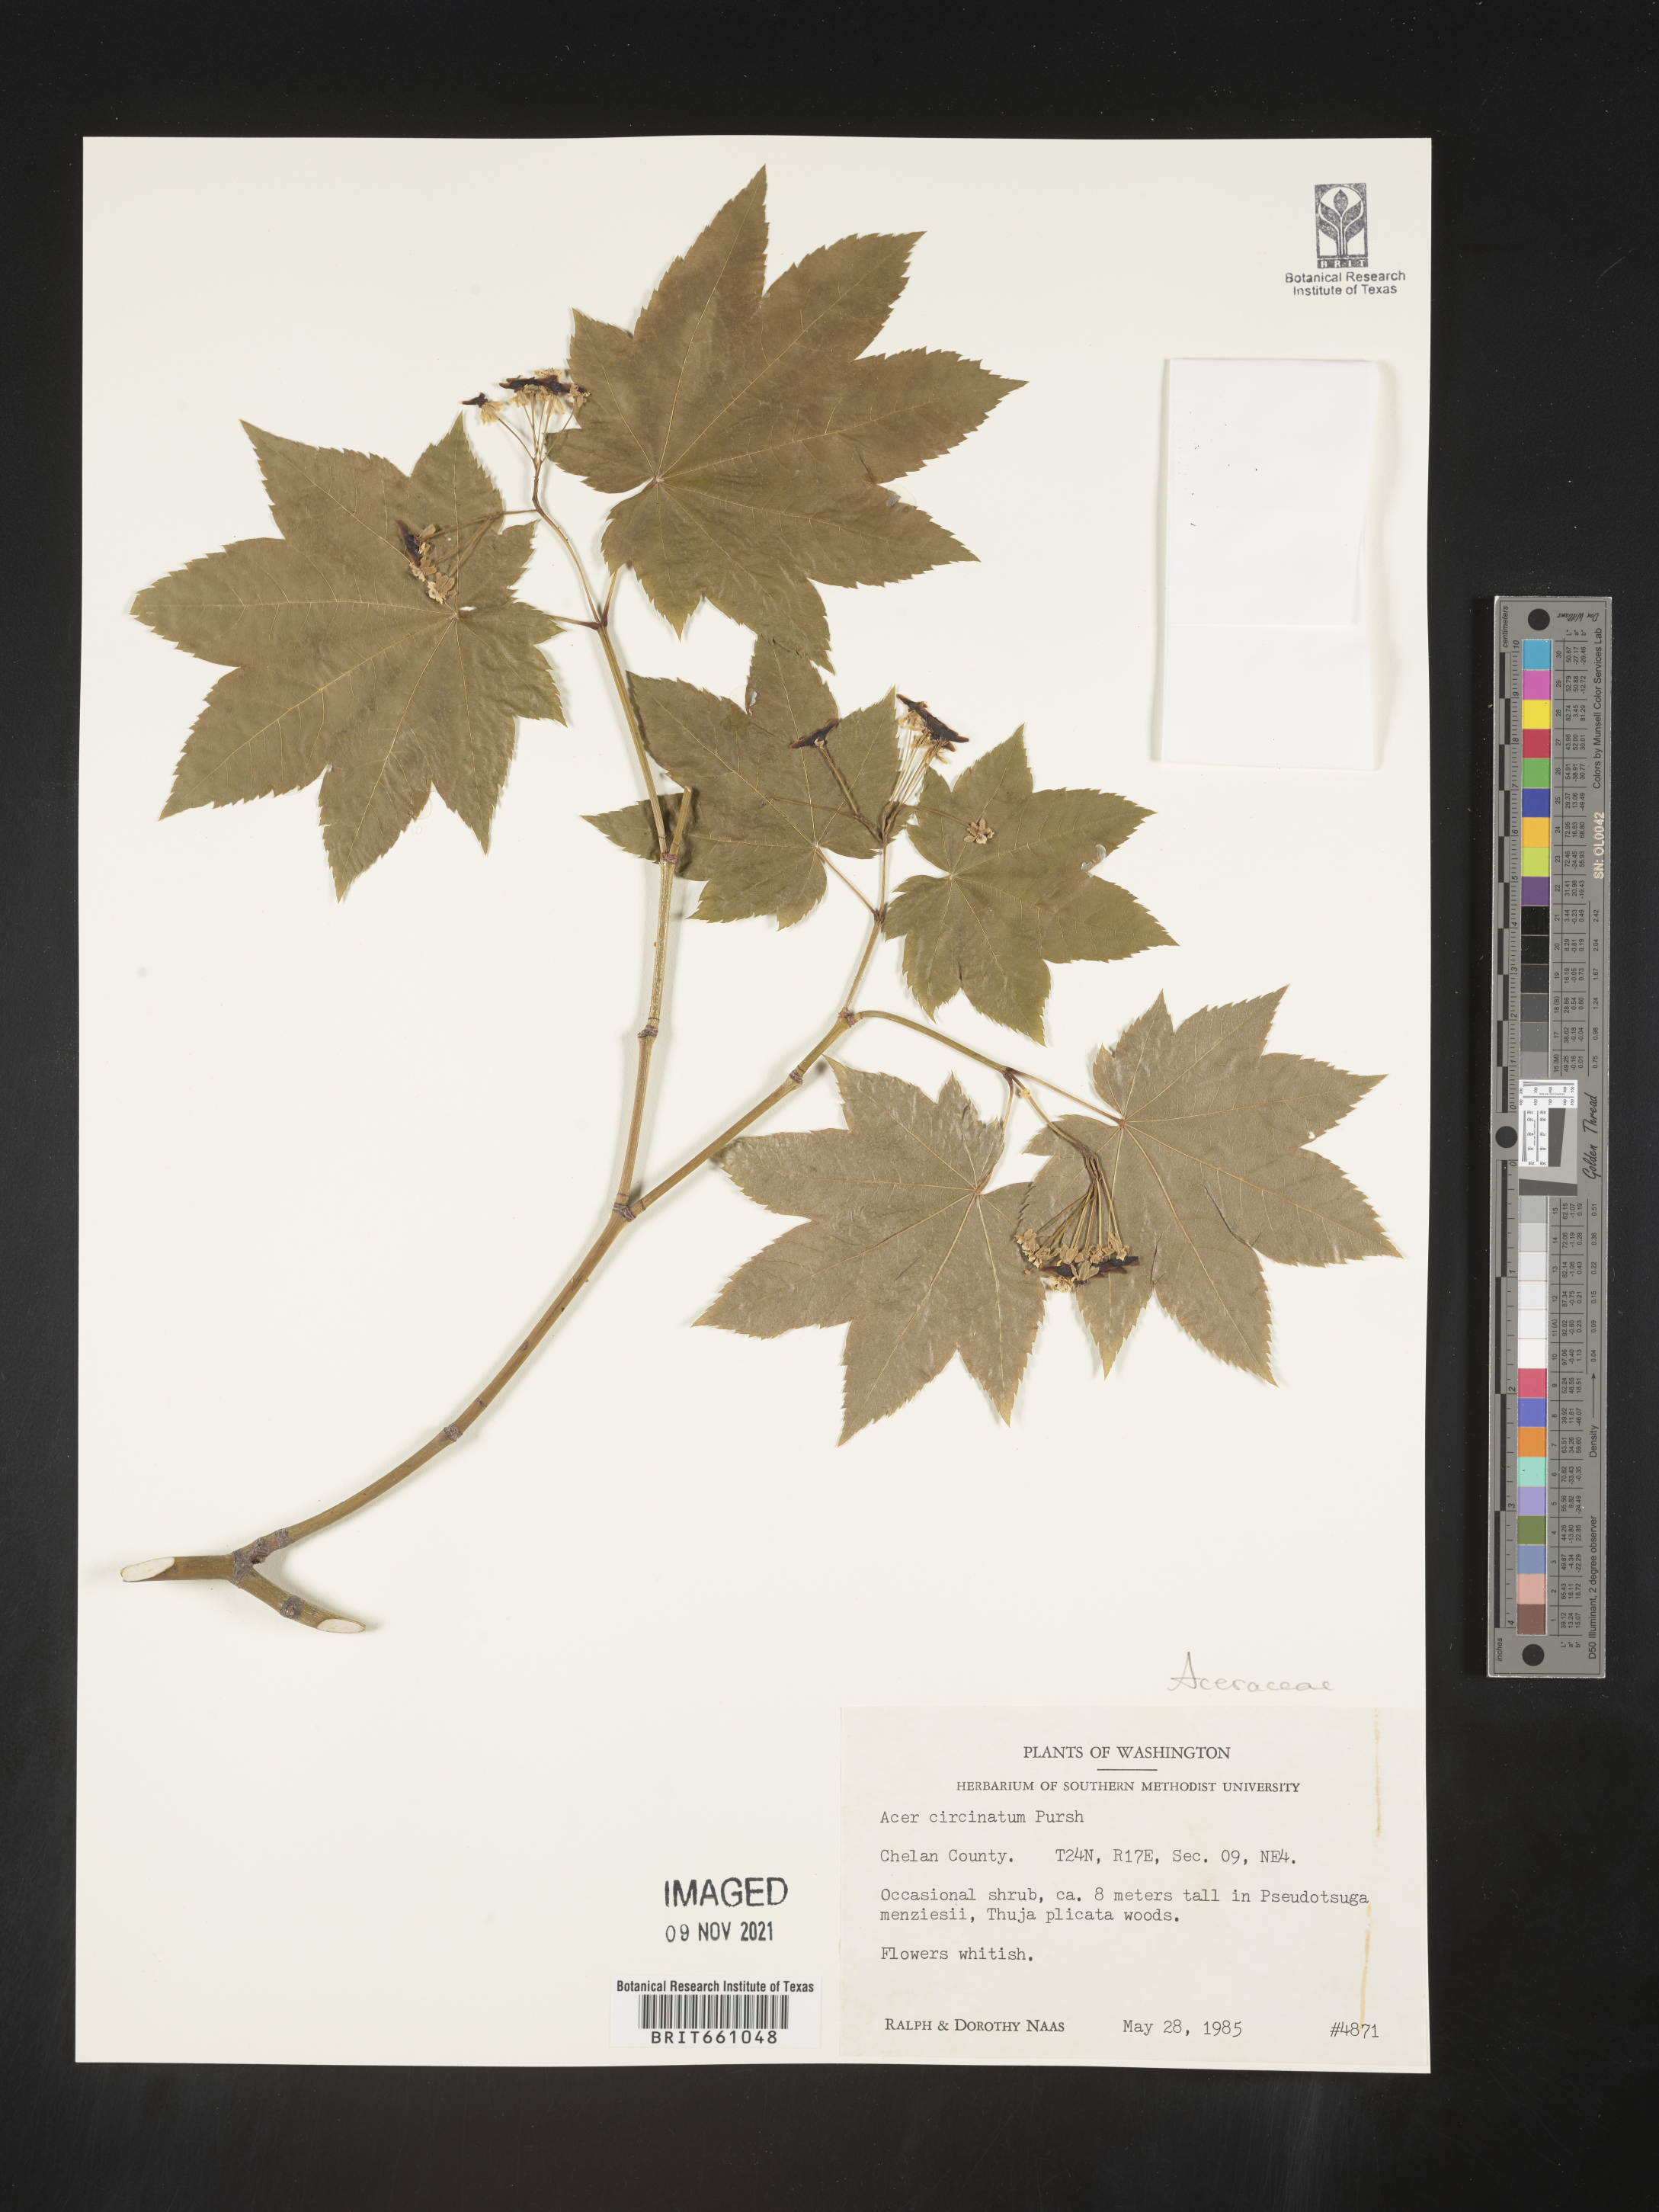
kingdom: Plantae
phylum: Tracheophyta
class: Magnoliopsida
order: Sapindales
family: Sapindaceae
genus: Acer
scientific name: Acer circinatum
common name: Vine maple
